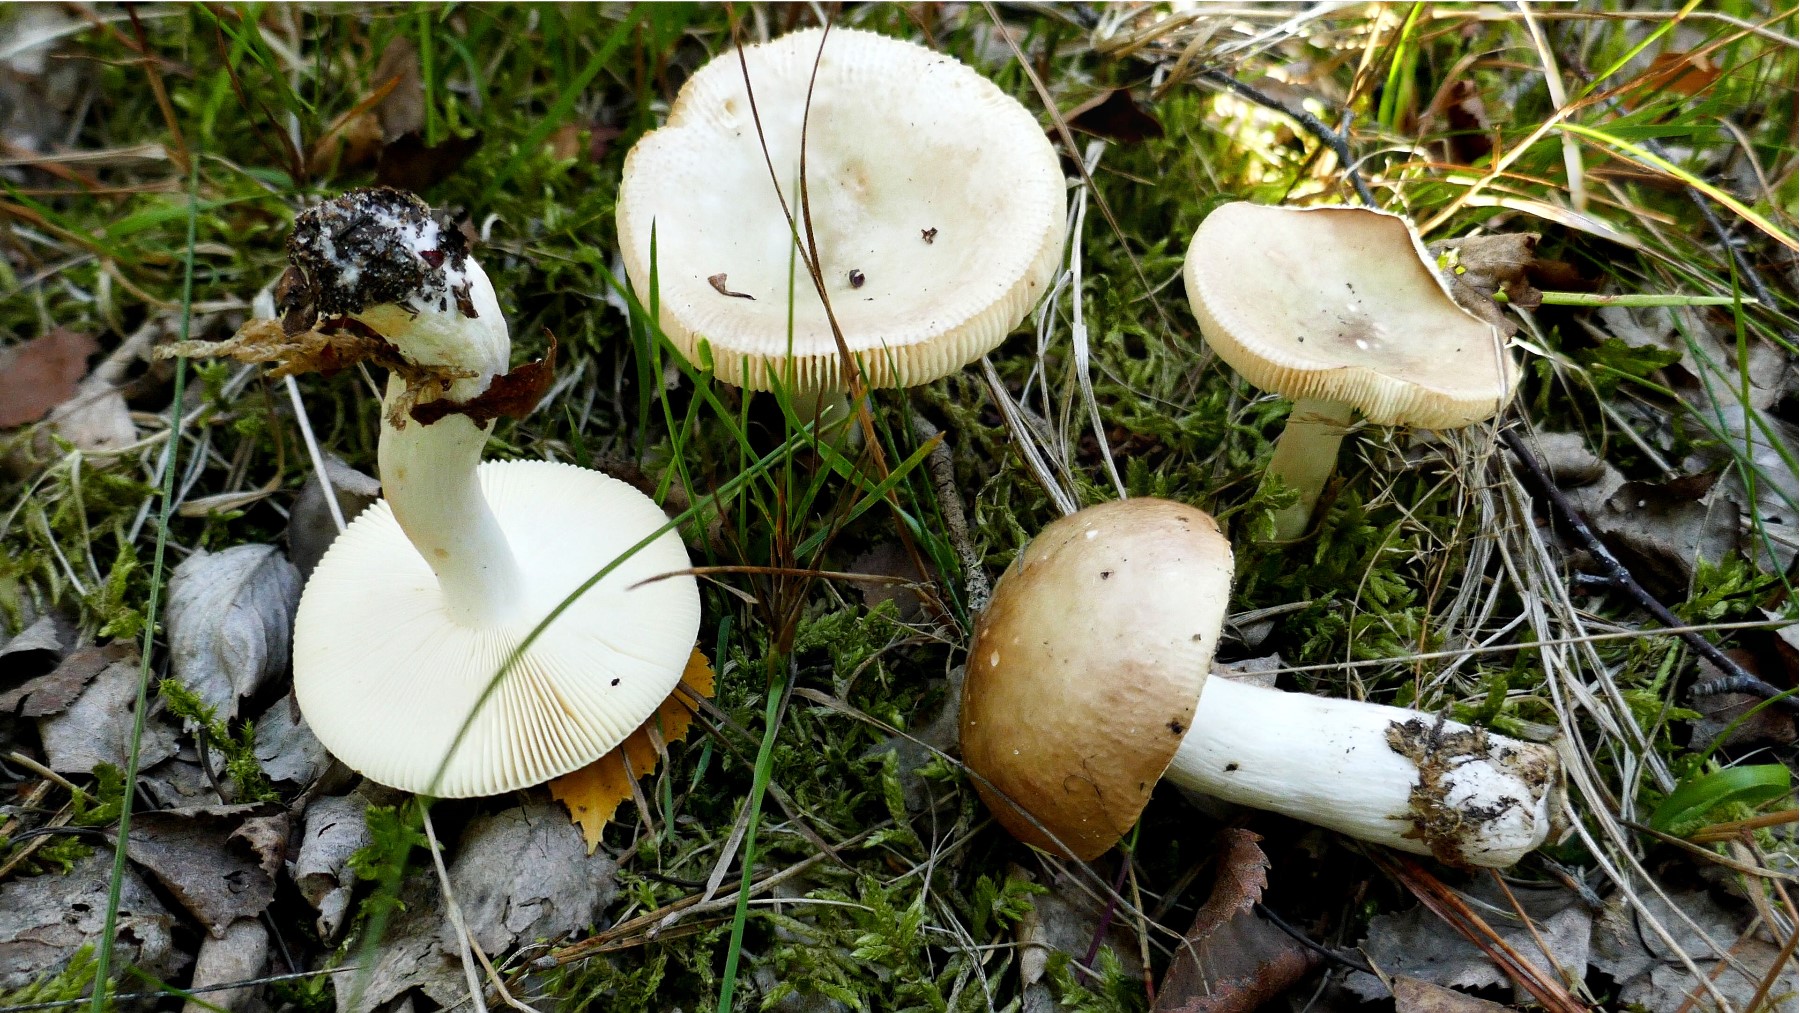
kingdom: Fungi
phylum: Basidiomycota
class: Agaricomycetes
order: Russulales
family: Russulaceae
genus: Russula
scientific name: Russula versicolor
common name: foranderlig skørhat
